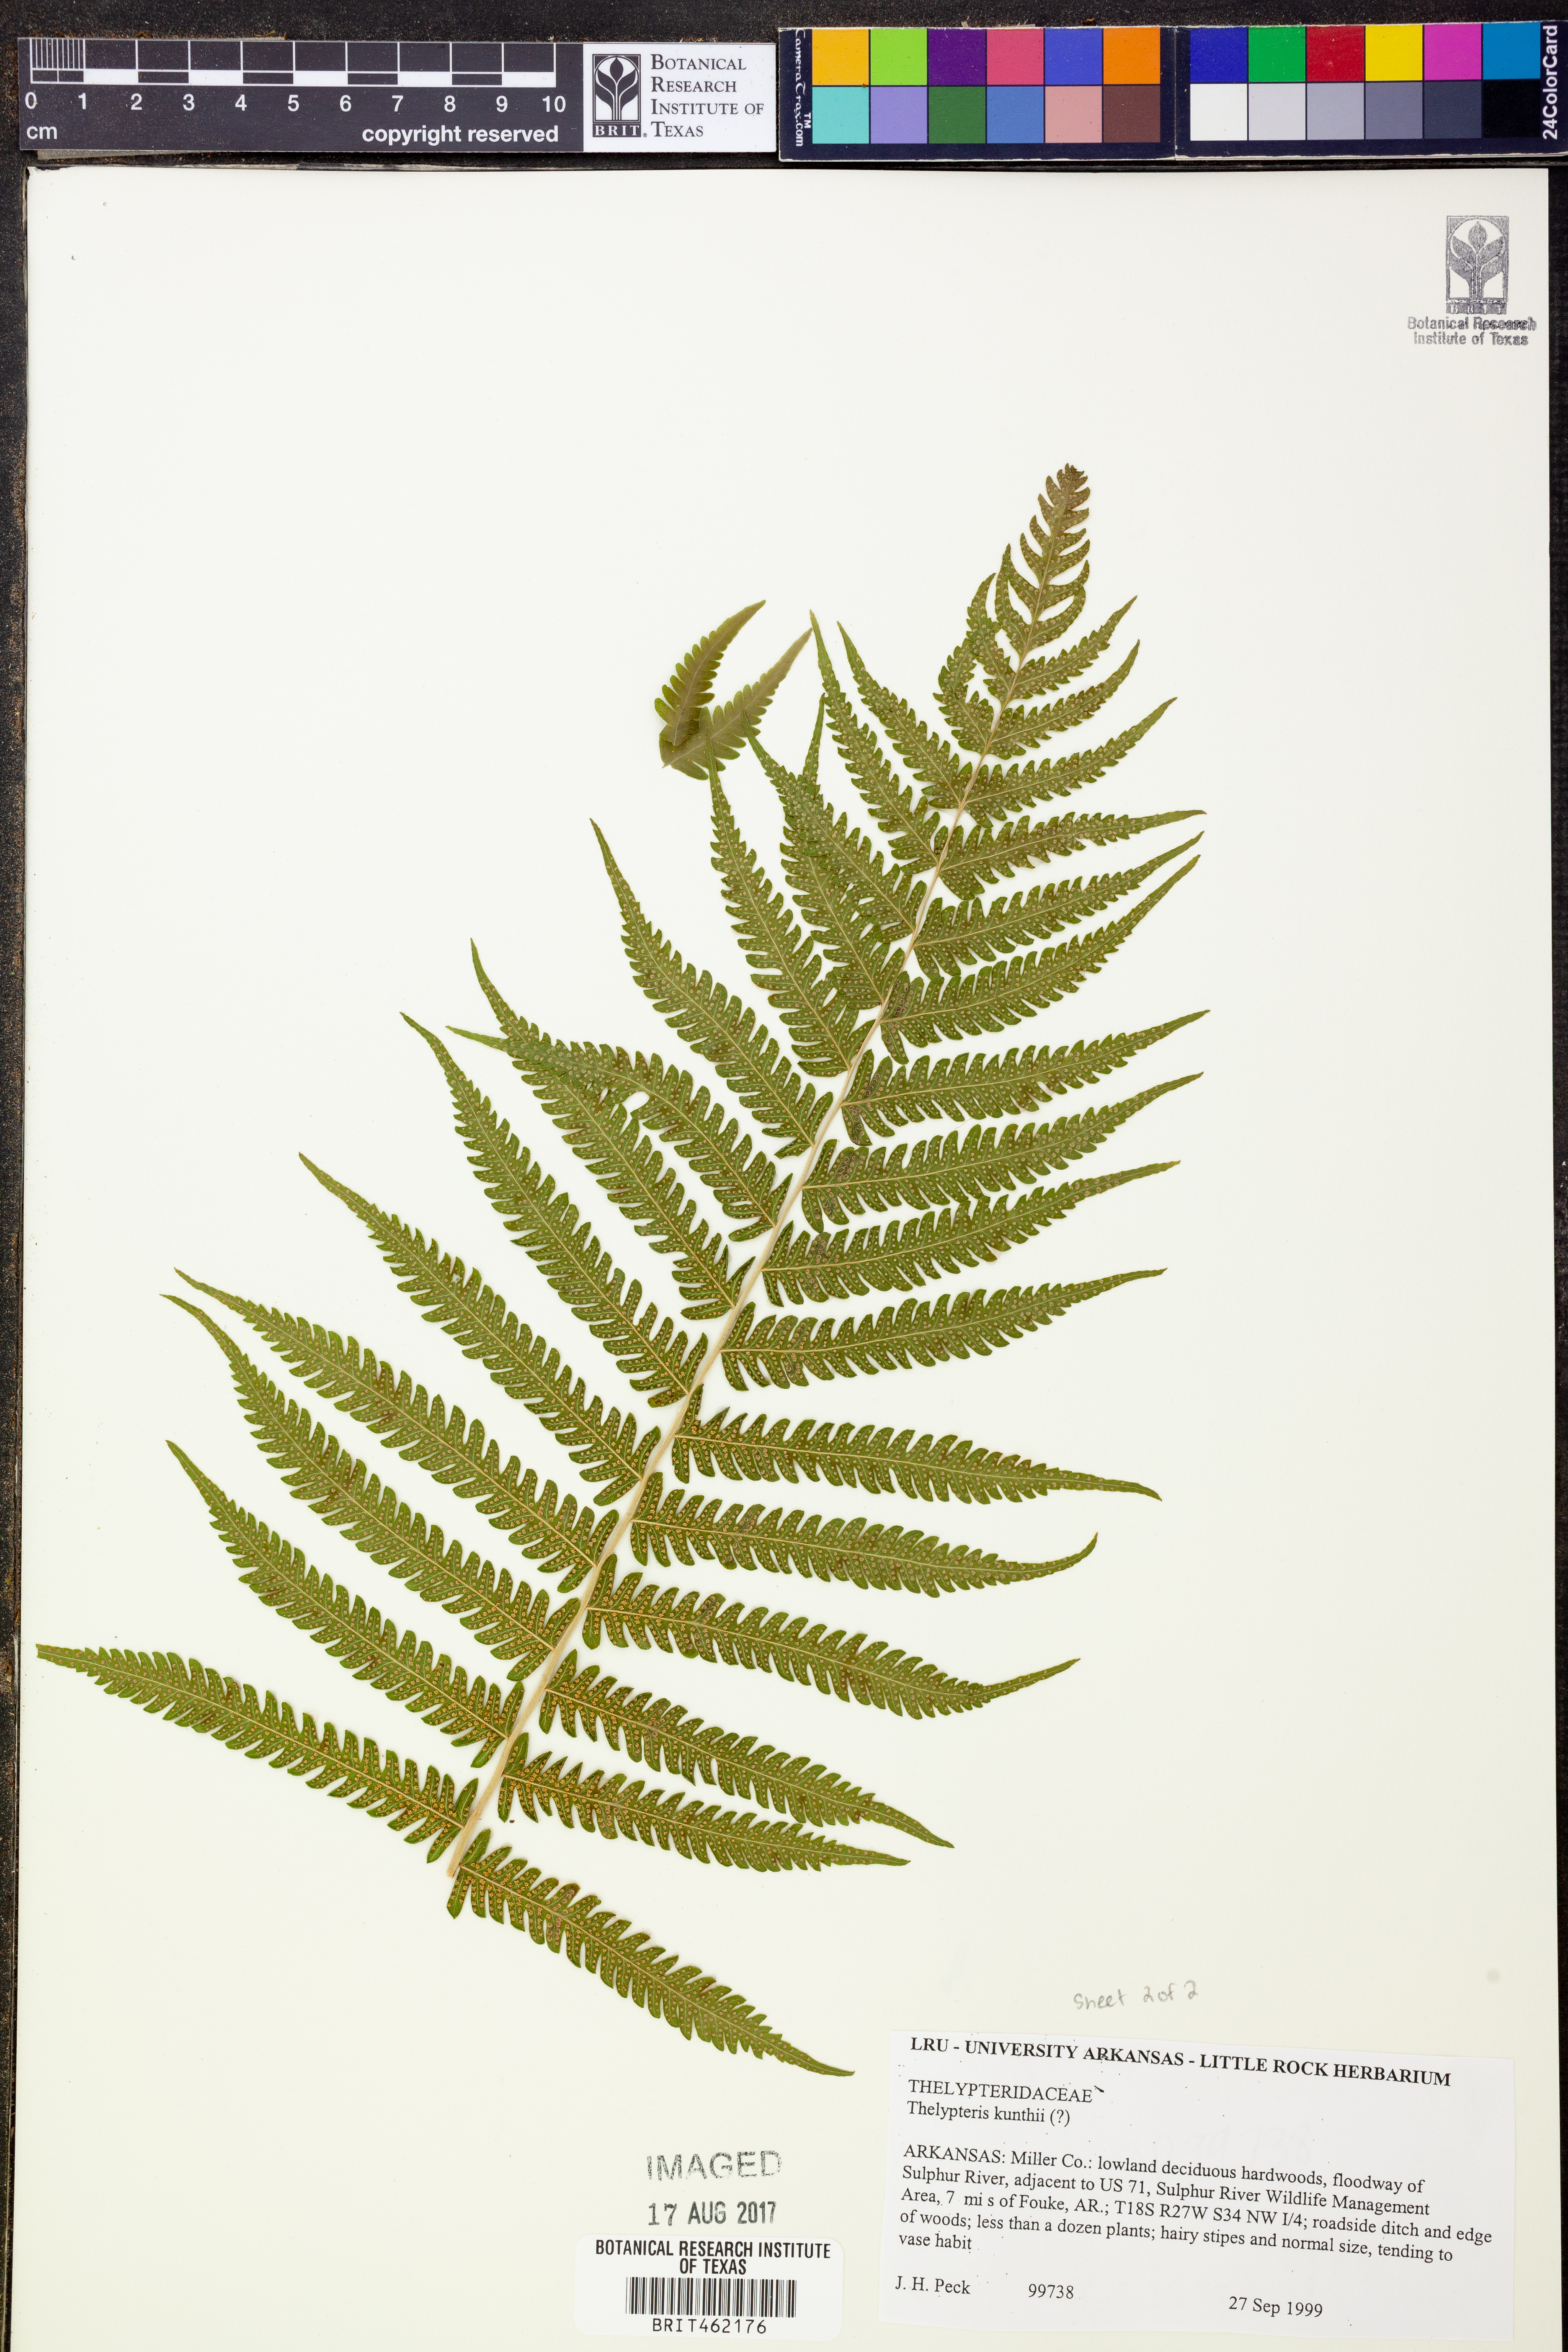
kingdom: Plantae
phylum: Tracheophyta
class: Polypodiopsida
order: Polypodiales
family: Thelypteridaceae
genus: Pelazoneuron
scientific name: Pelazoneuron kunthii
